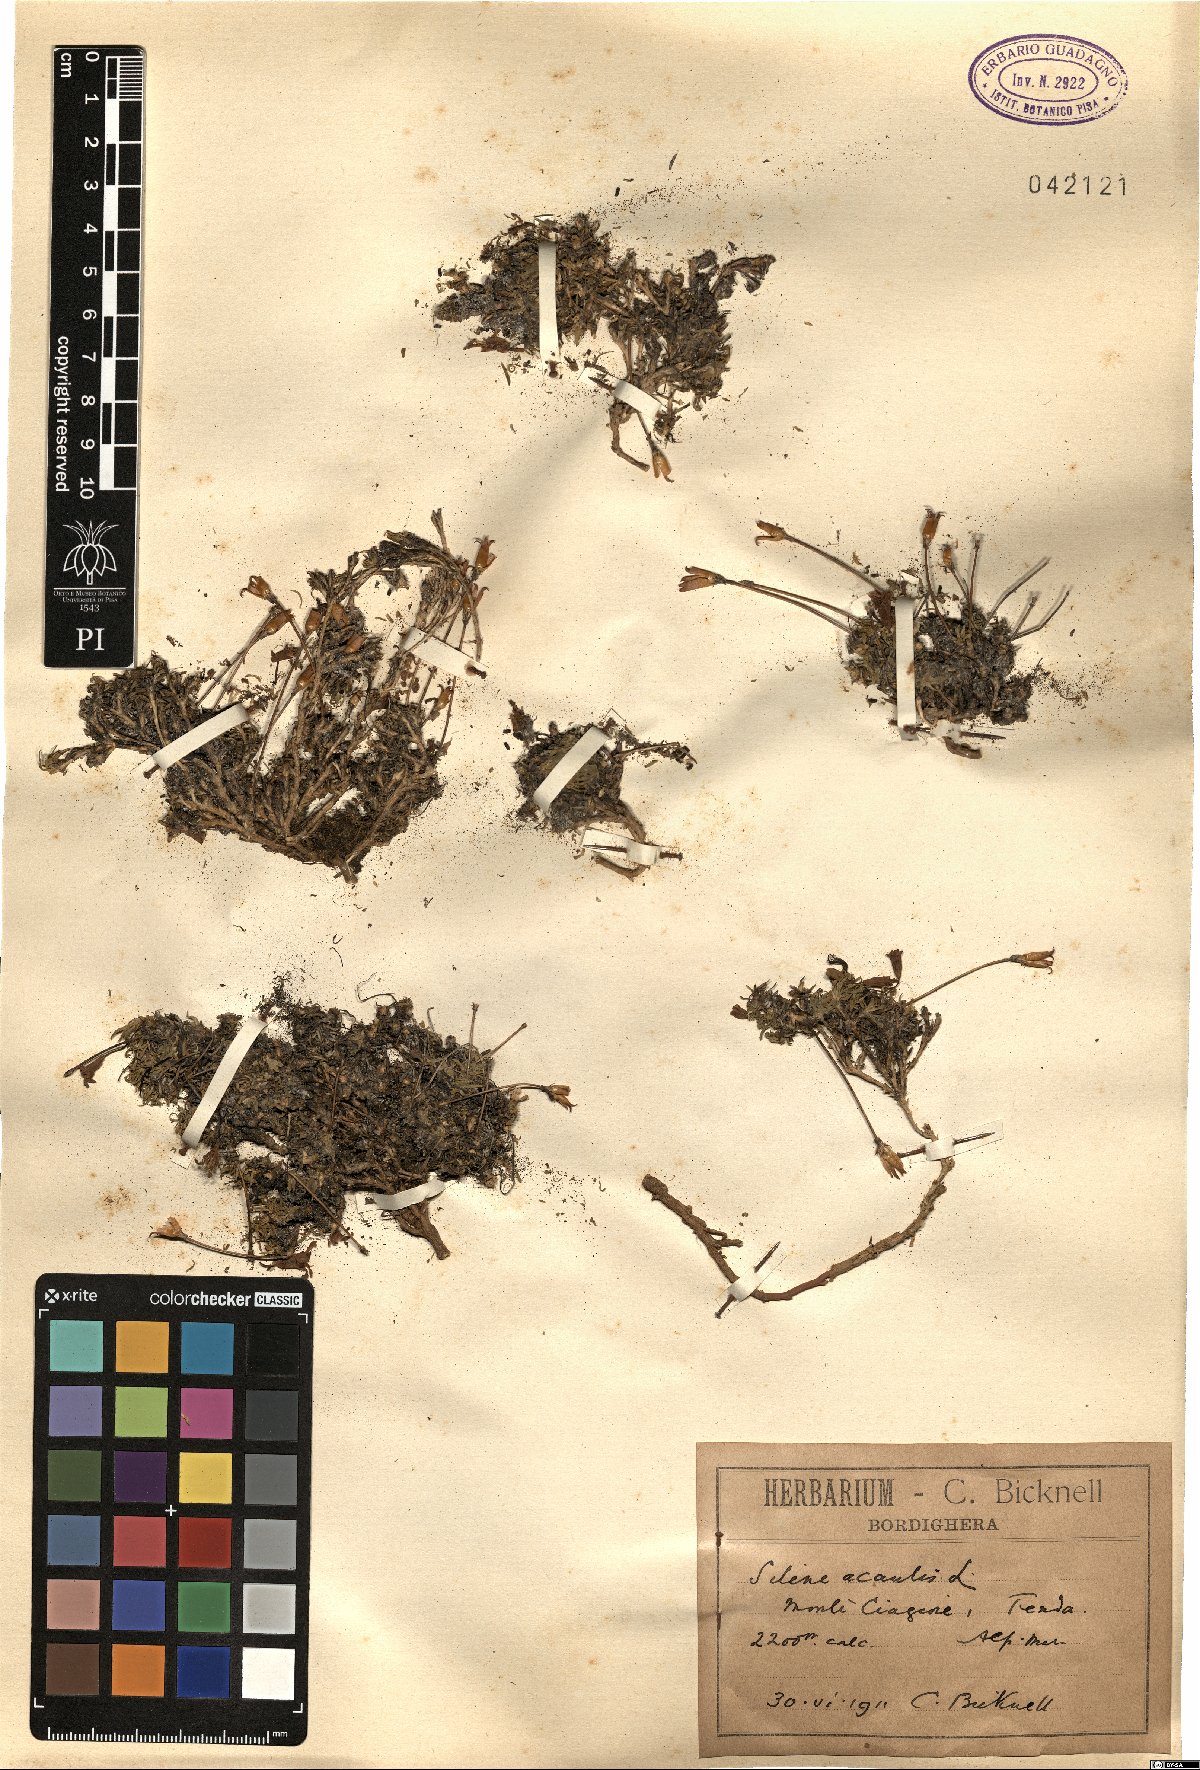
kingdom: Plantae
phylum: Tracheophyta
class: Magnoliopsida
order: Caryophyllales
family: Caryophyllaceae
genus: Silene
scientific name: Silene acaulis
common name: Moss campion
